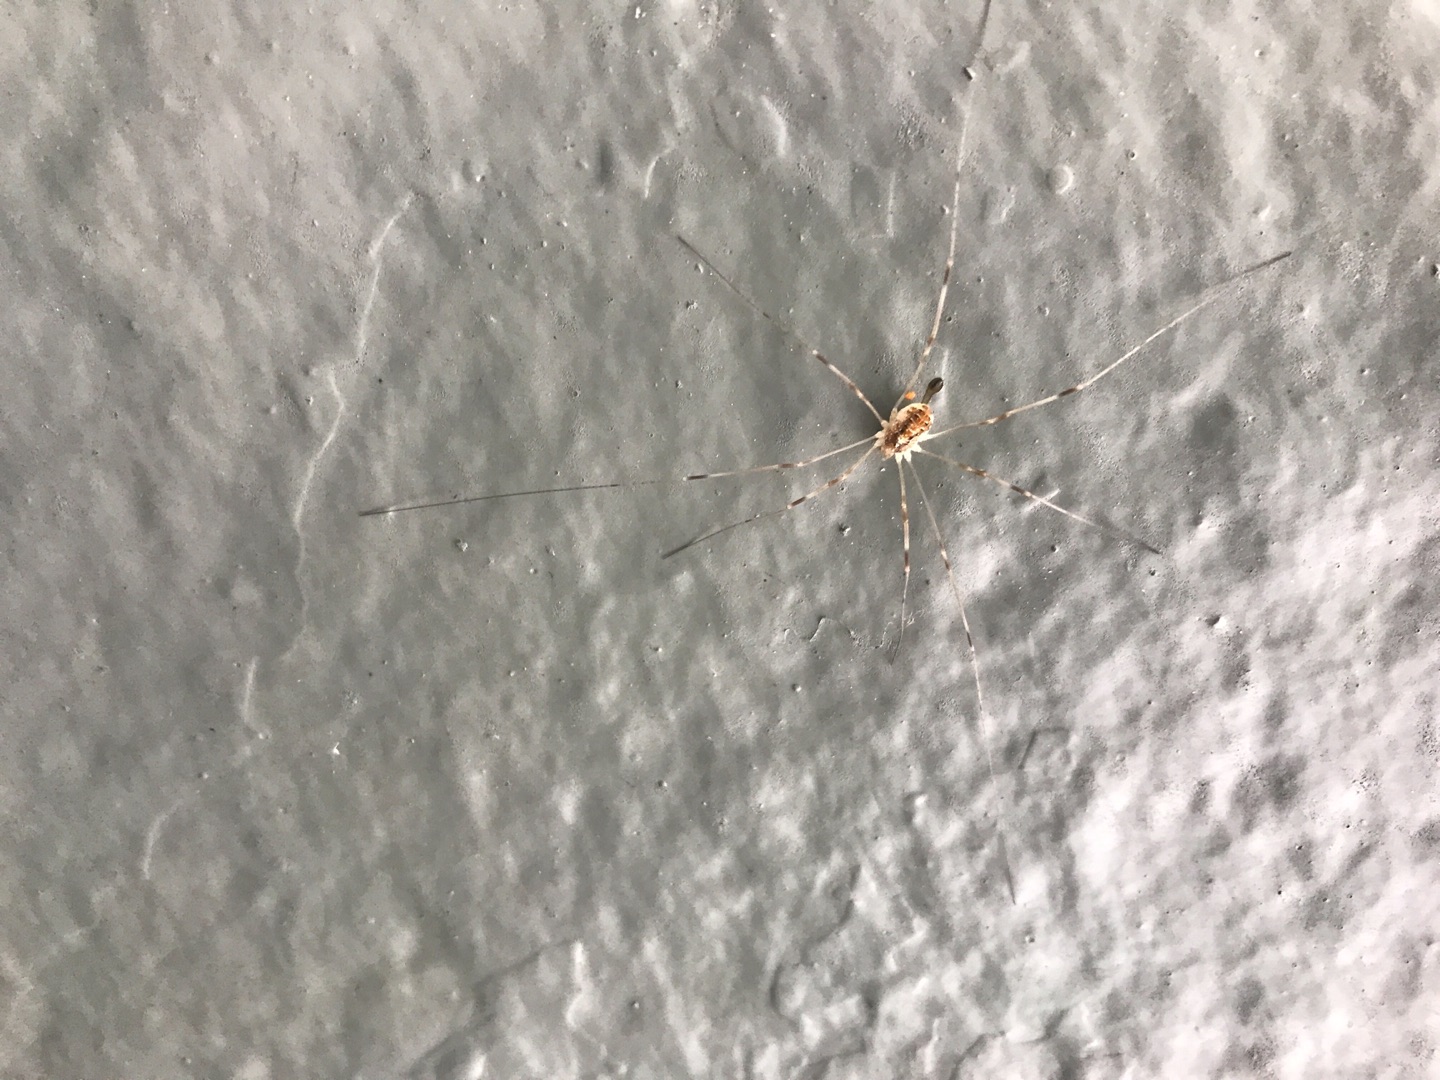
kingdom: Animalia
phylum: Arthropoda
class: Arachnida
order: Opiliones
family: Phalangiidae
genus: Opilio
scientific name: Opilio canestrinii
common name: Orange vægmejer
